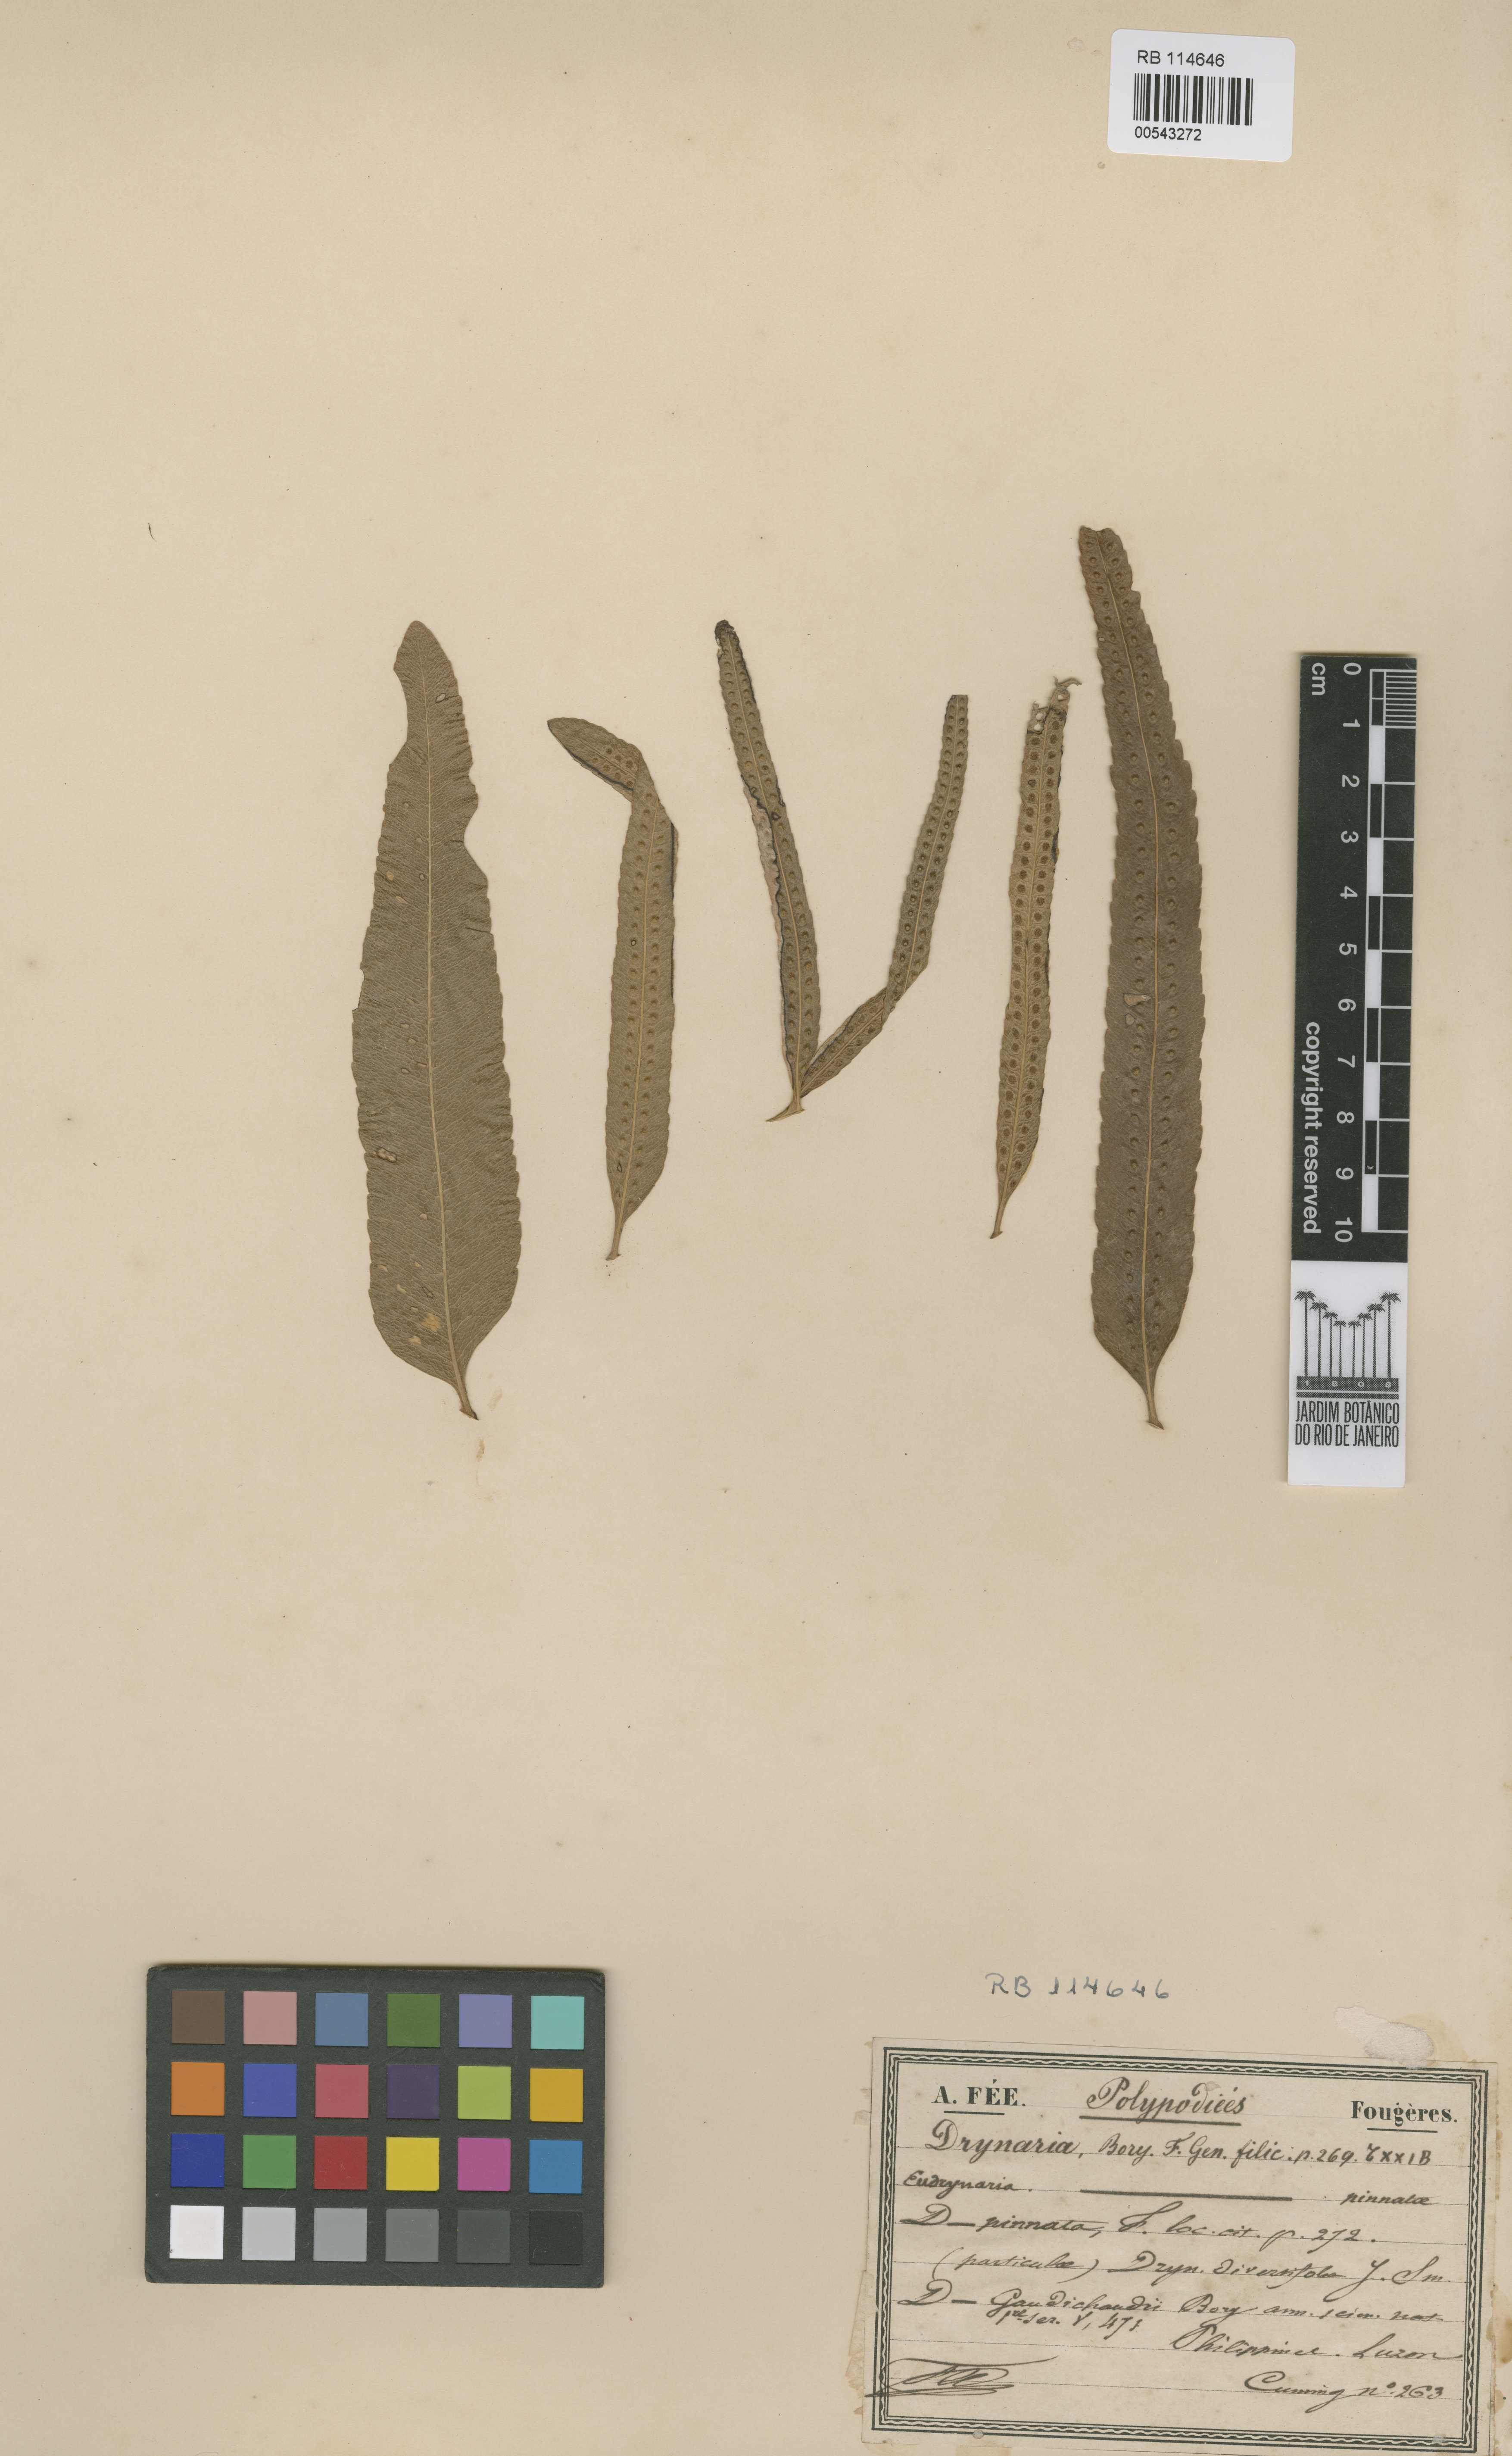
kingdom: Plantae
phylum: Tracheophyta
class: Polypodiopsida
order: Polypodiales
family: Polypodiaceae
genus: Drynaria
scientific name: Drynaria rigidula
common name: Basket fern
